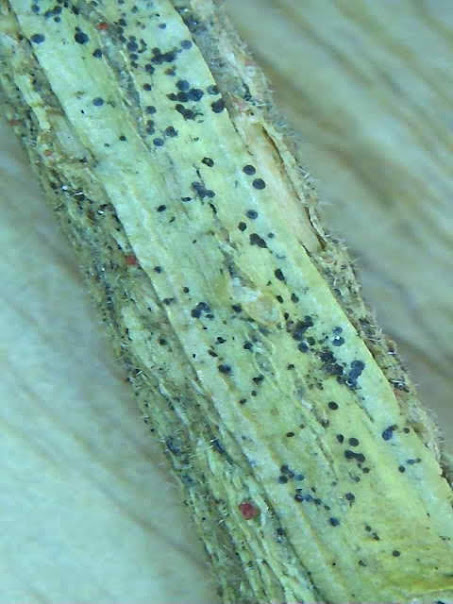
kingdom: Fungi
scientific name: Fungi
